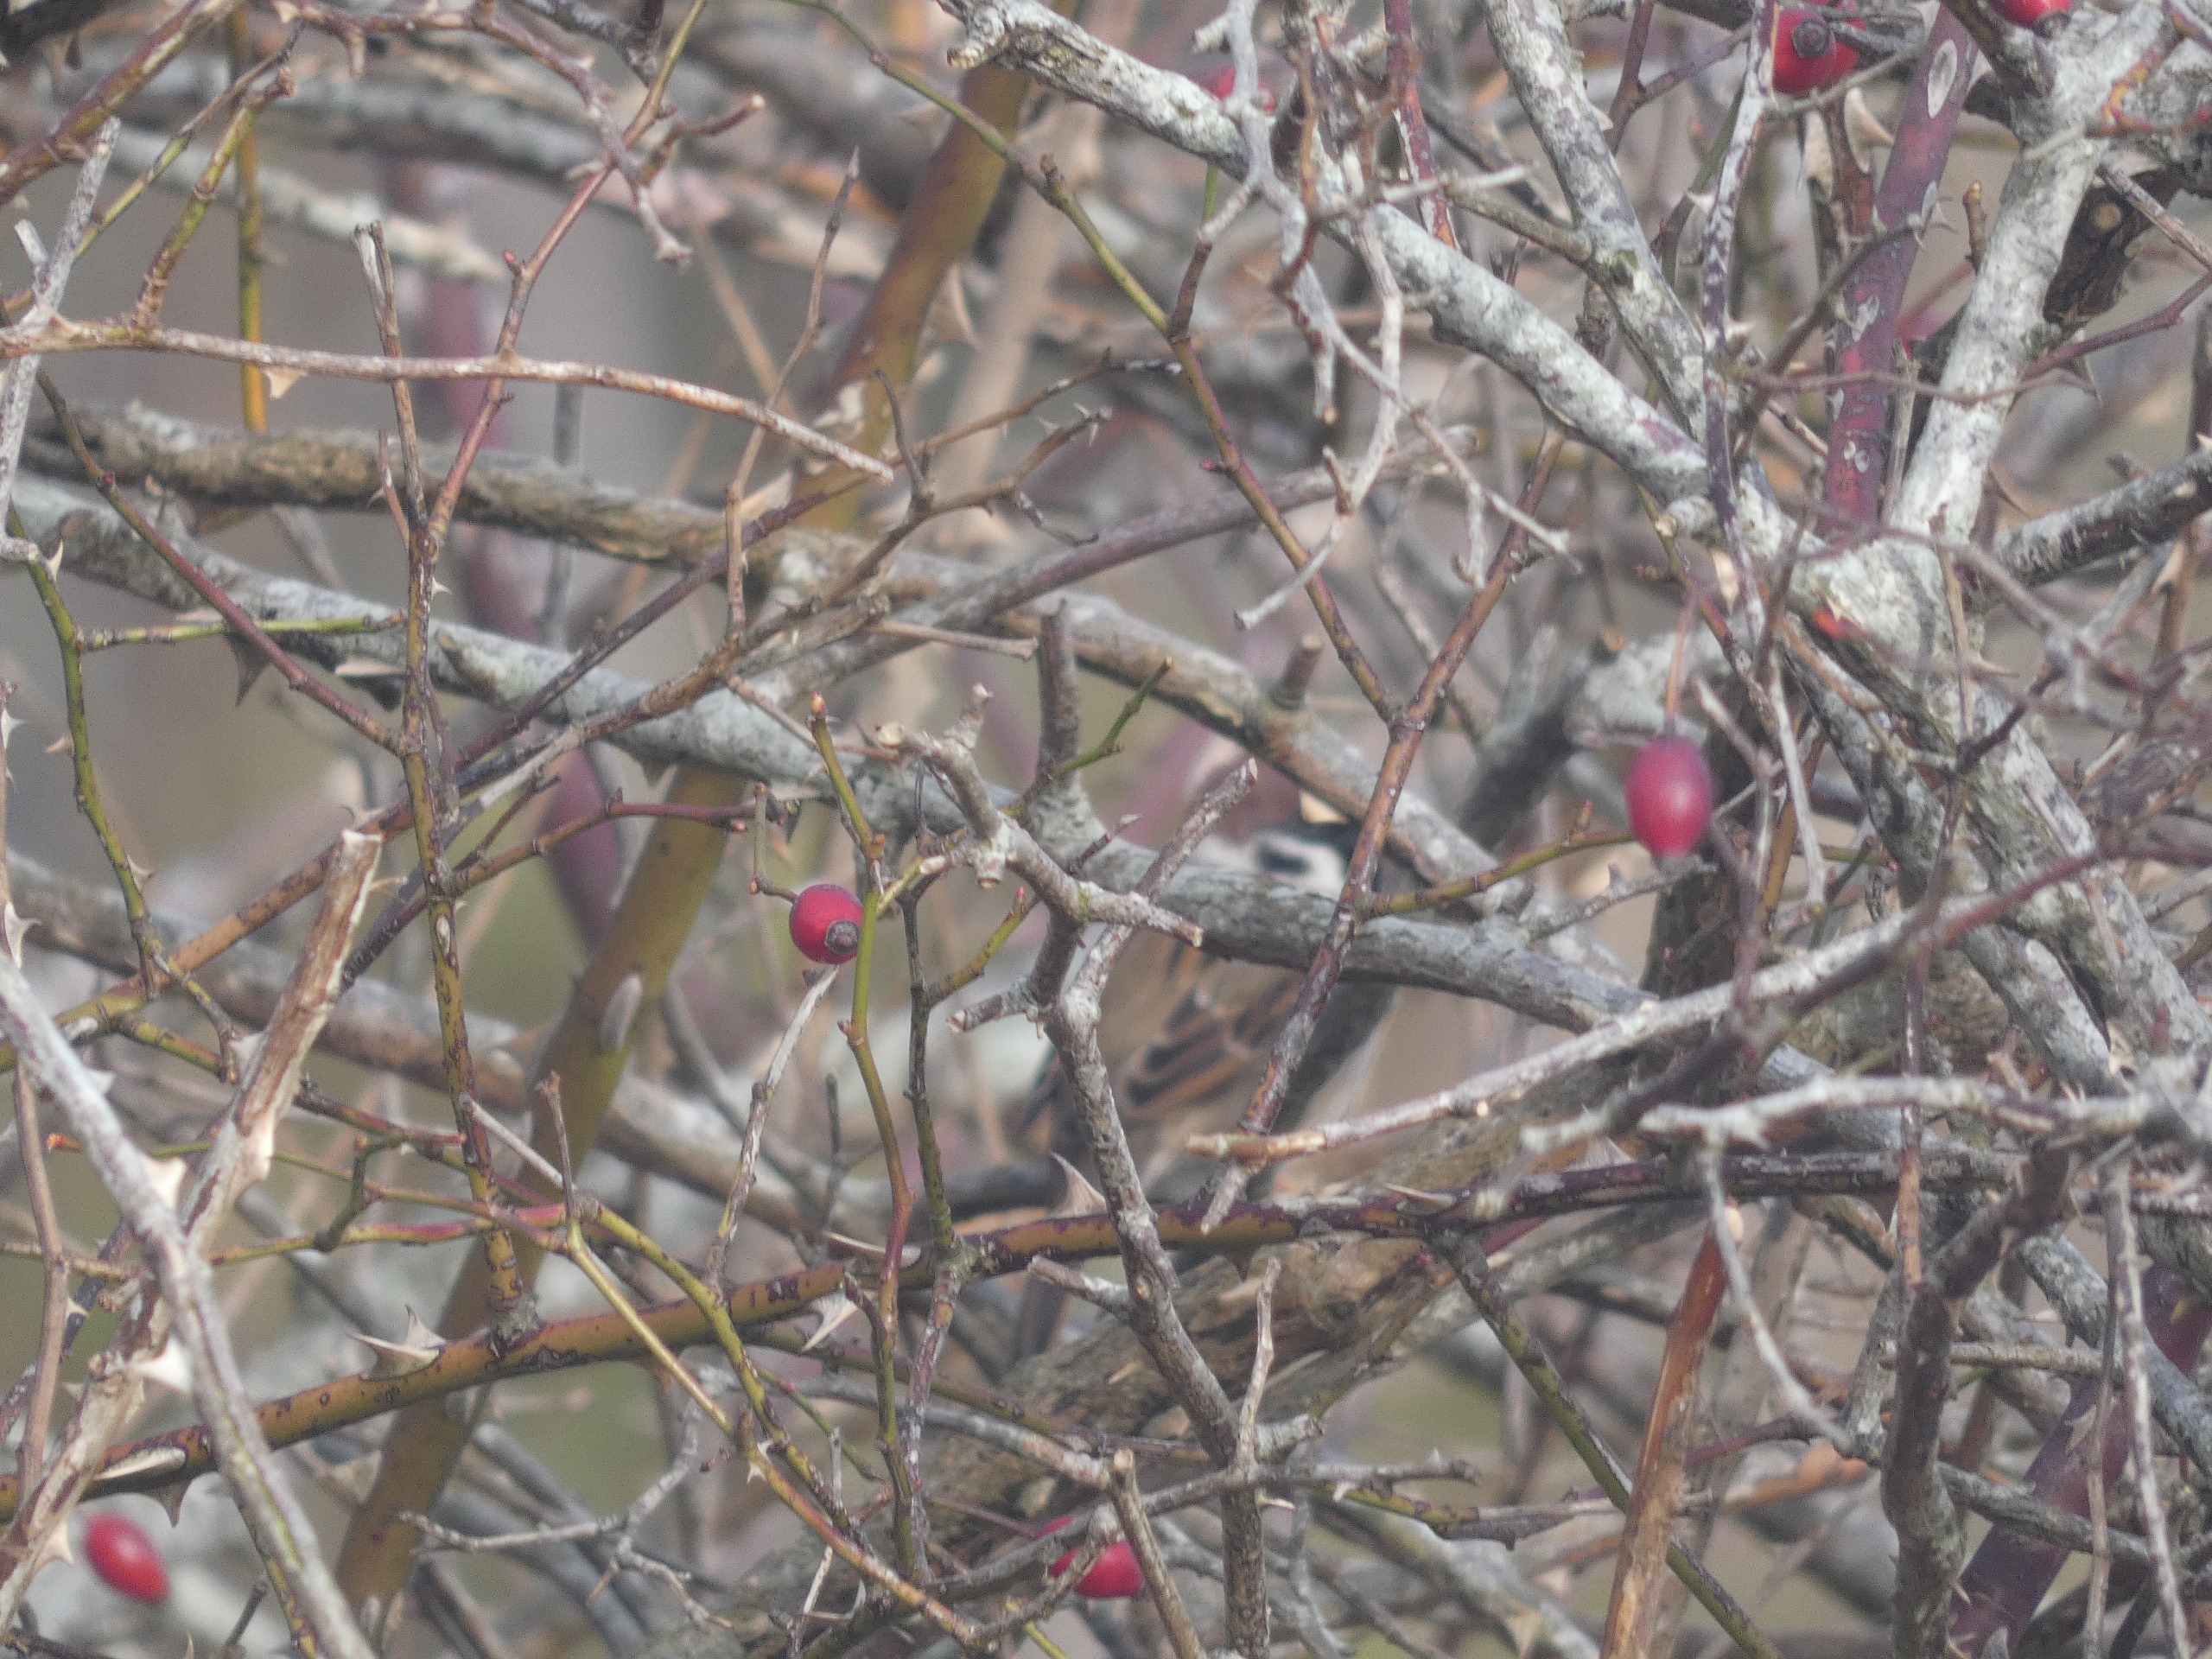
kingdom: Animalia
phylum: Chordata
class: Aves
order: Passeriformes
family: Passeridae
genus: Passer
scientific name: Passer montanus
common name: Skovspurv
